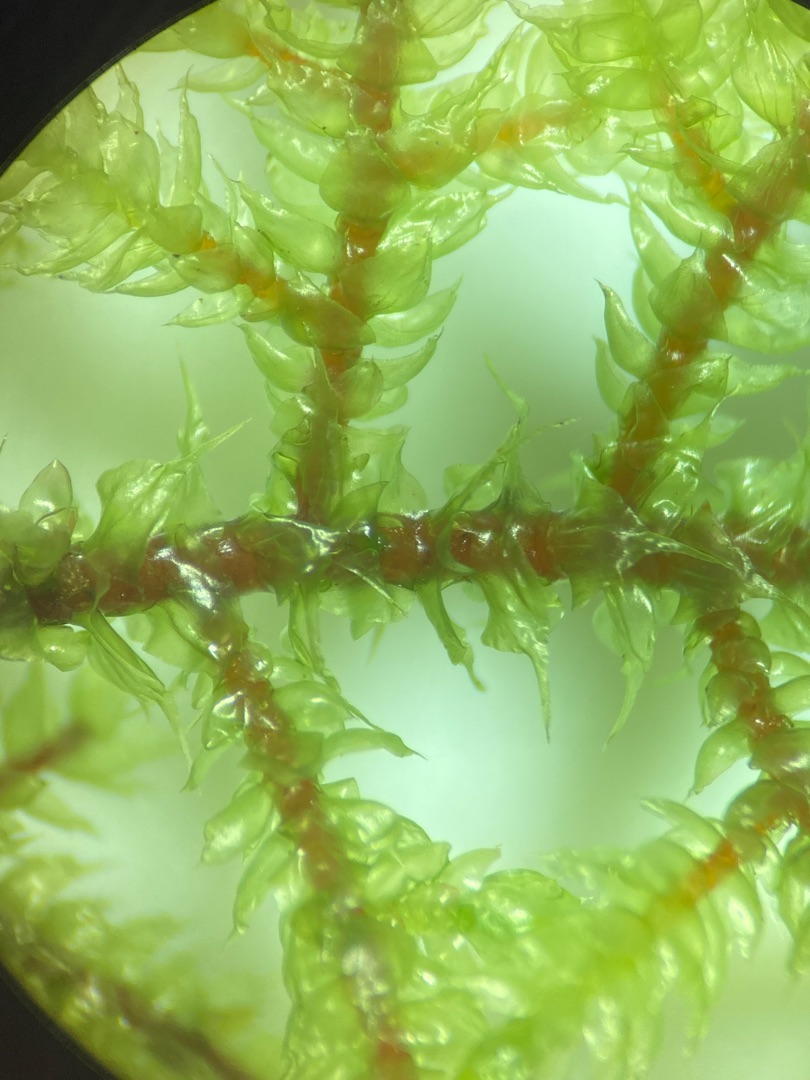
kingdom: Plantae
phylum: Bryophyta
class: Bryopsida
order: Hypnales
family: Hylocomiaceae
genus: Loeskeobryum
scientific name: Loeskeobryum brevirostre
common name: Åben etagemos
